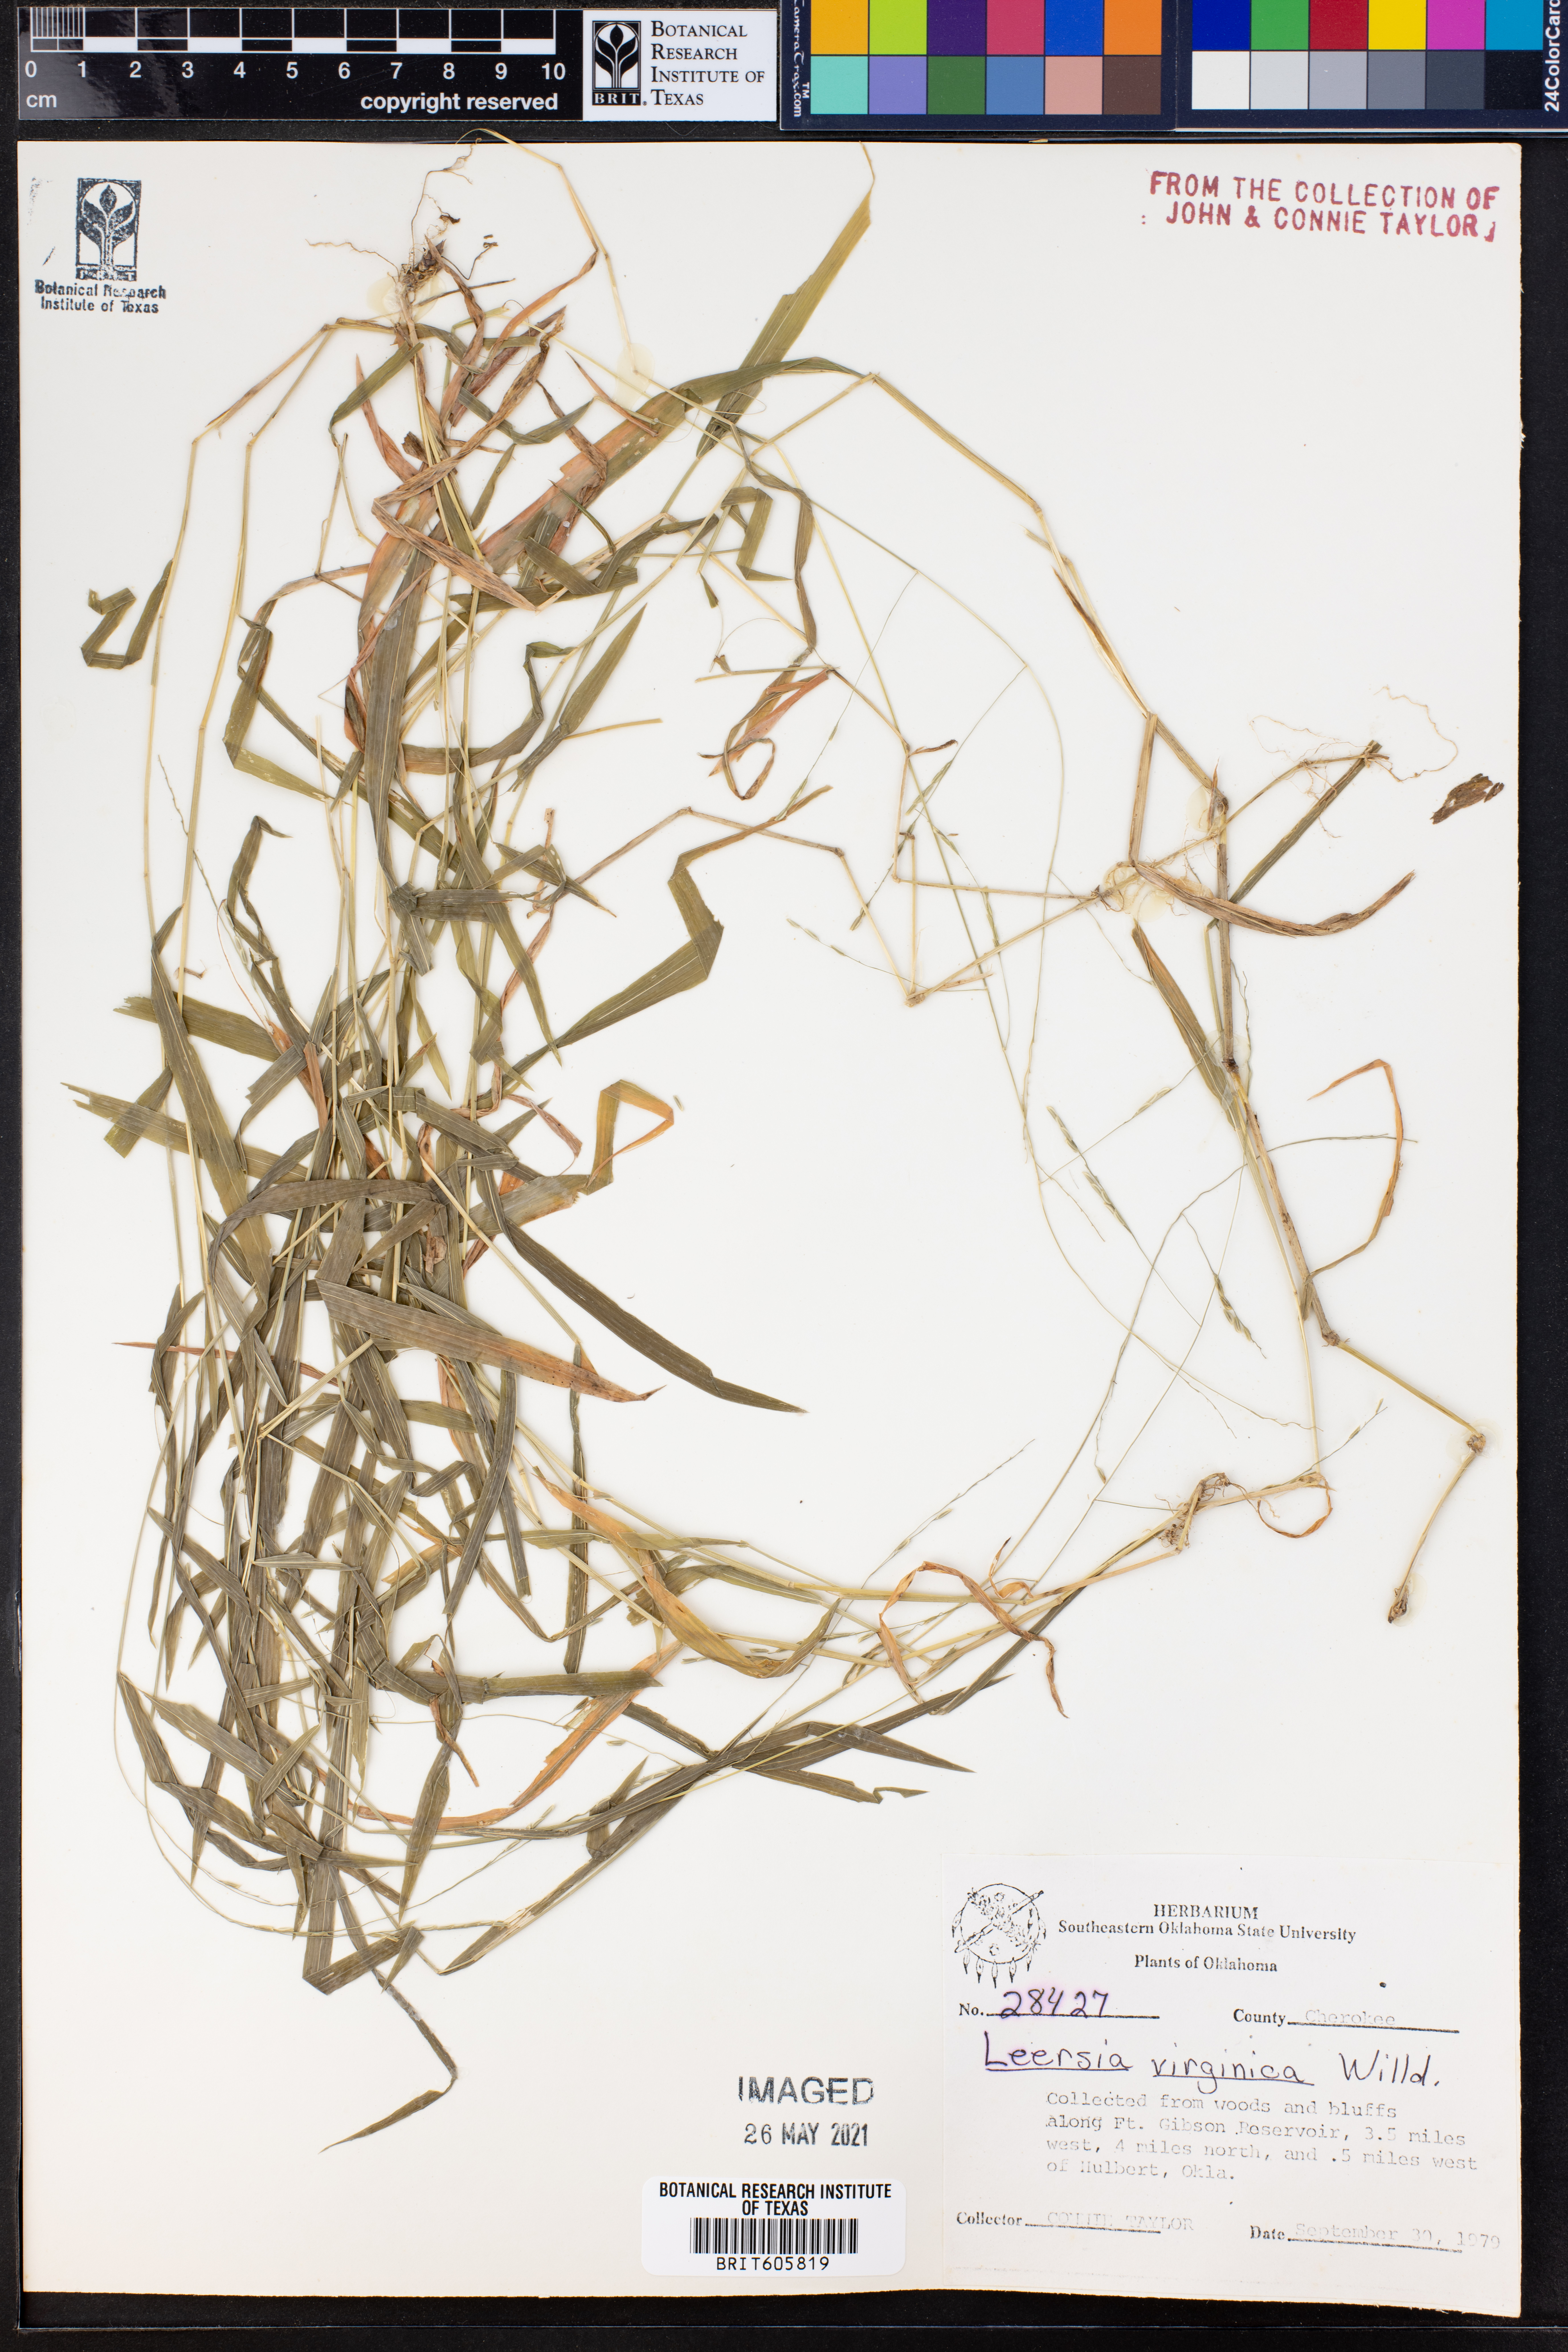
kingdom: Plantae
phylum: Tracheophyta
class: Liliopsida
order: Poales
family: Poaceae
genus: Leersia
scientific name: Leersia virginica
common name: White cutgrass
